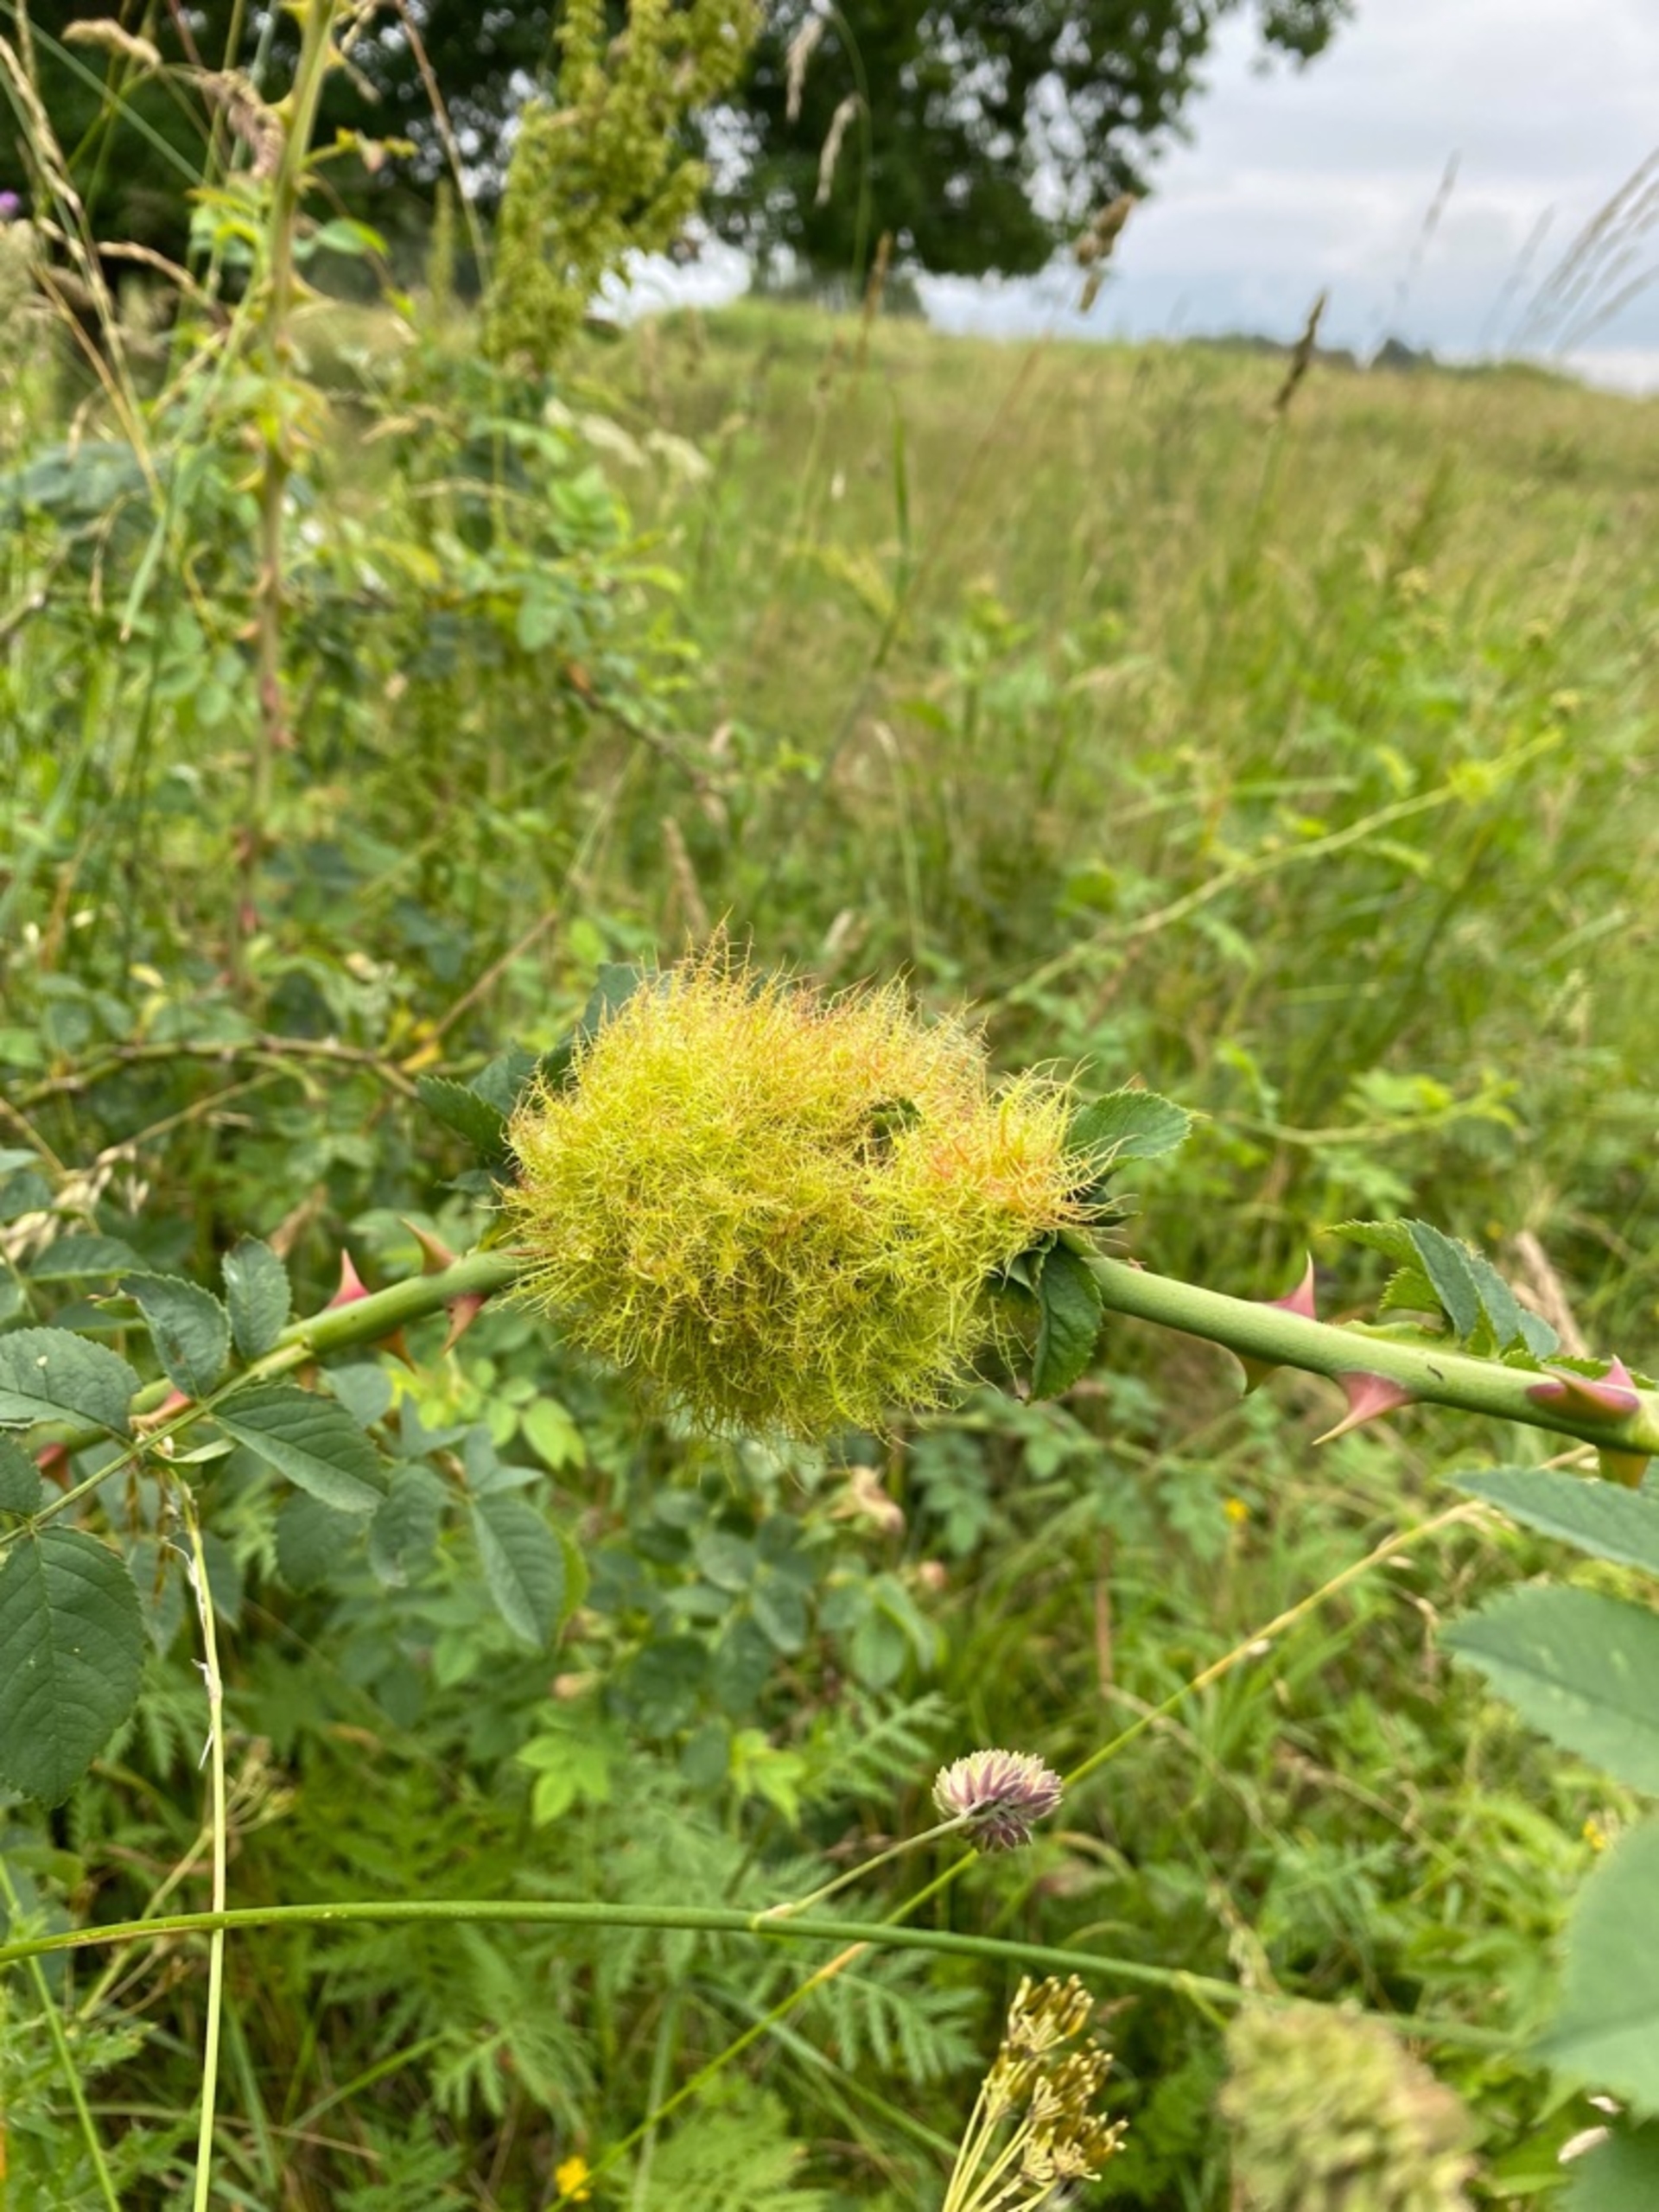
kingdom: Animalia
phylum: Arthropoda
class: Insecta
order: Hymenoptera
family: Cynipidae
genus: Diplolepis
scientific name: Diplolepis rosae
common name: Bedeguargalhveps
